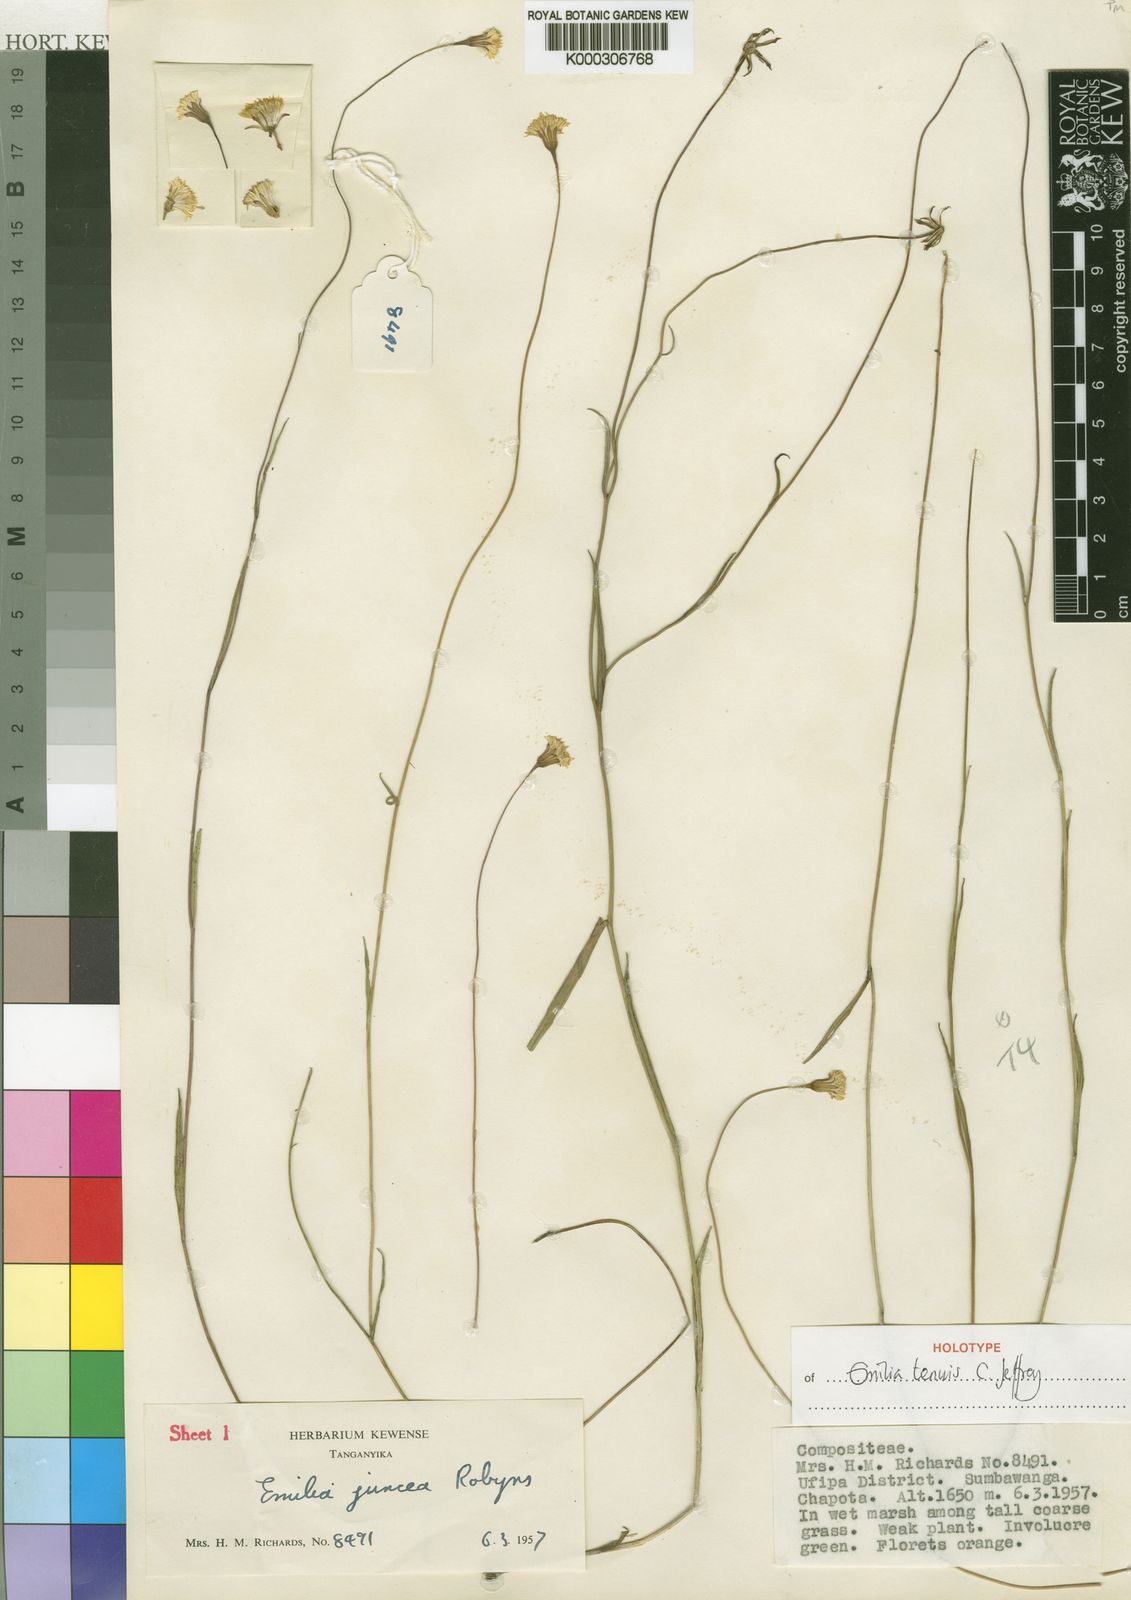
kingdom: Plantae
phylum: Tracheophyta
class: Magnoliopsida
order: Asterales
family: Asteraceae
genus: Emilia
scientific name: Emilia tenuis
